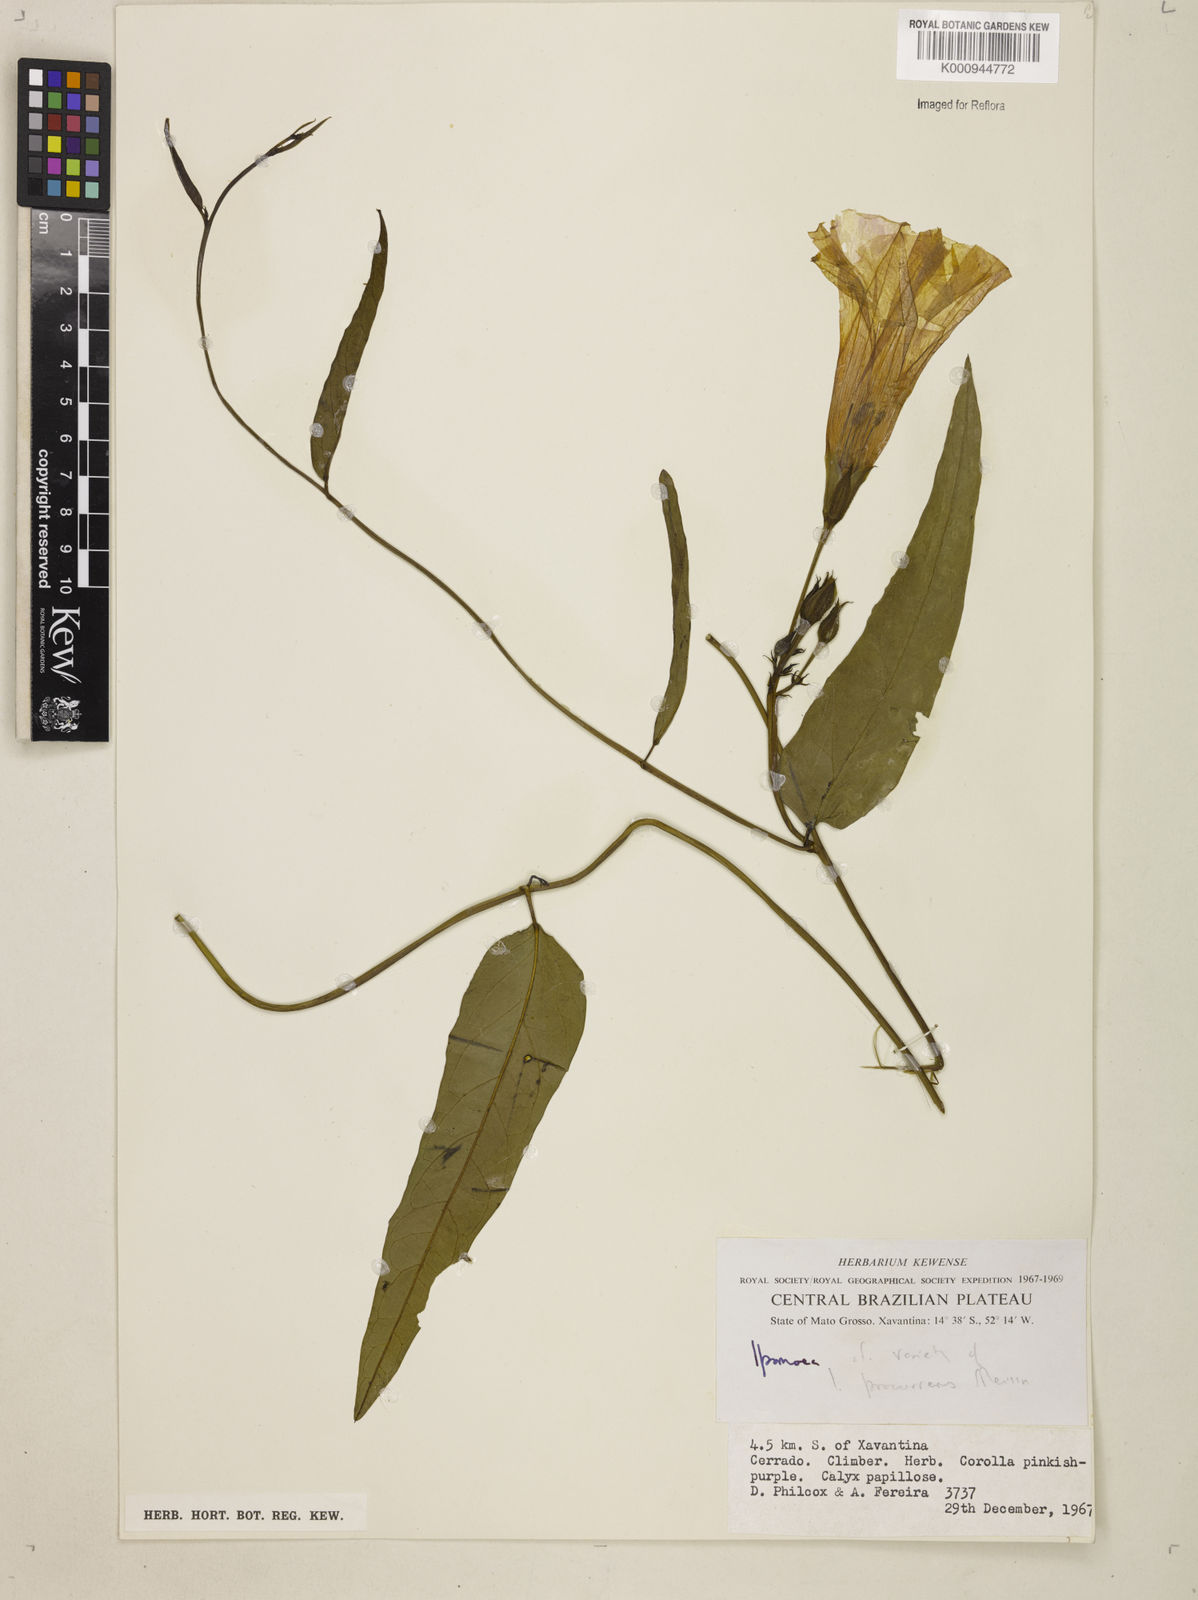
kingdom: Plantae
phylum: Tracheophyta
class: Magnoliopsida
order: Solanales
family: Convolvulaceae
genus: Ipomoea
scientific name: Ipomoea procurrens
